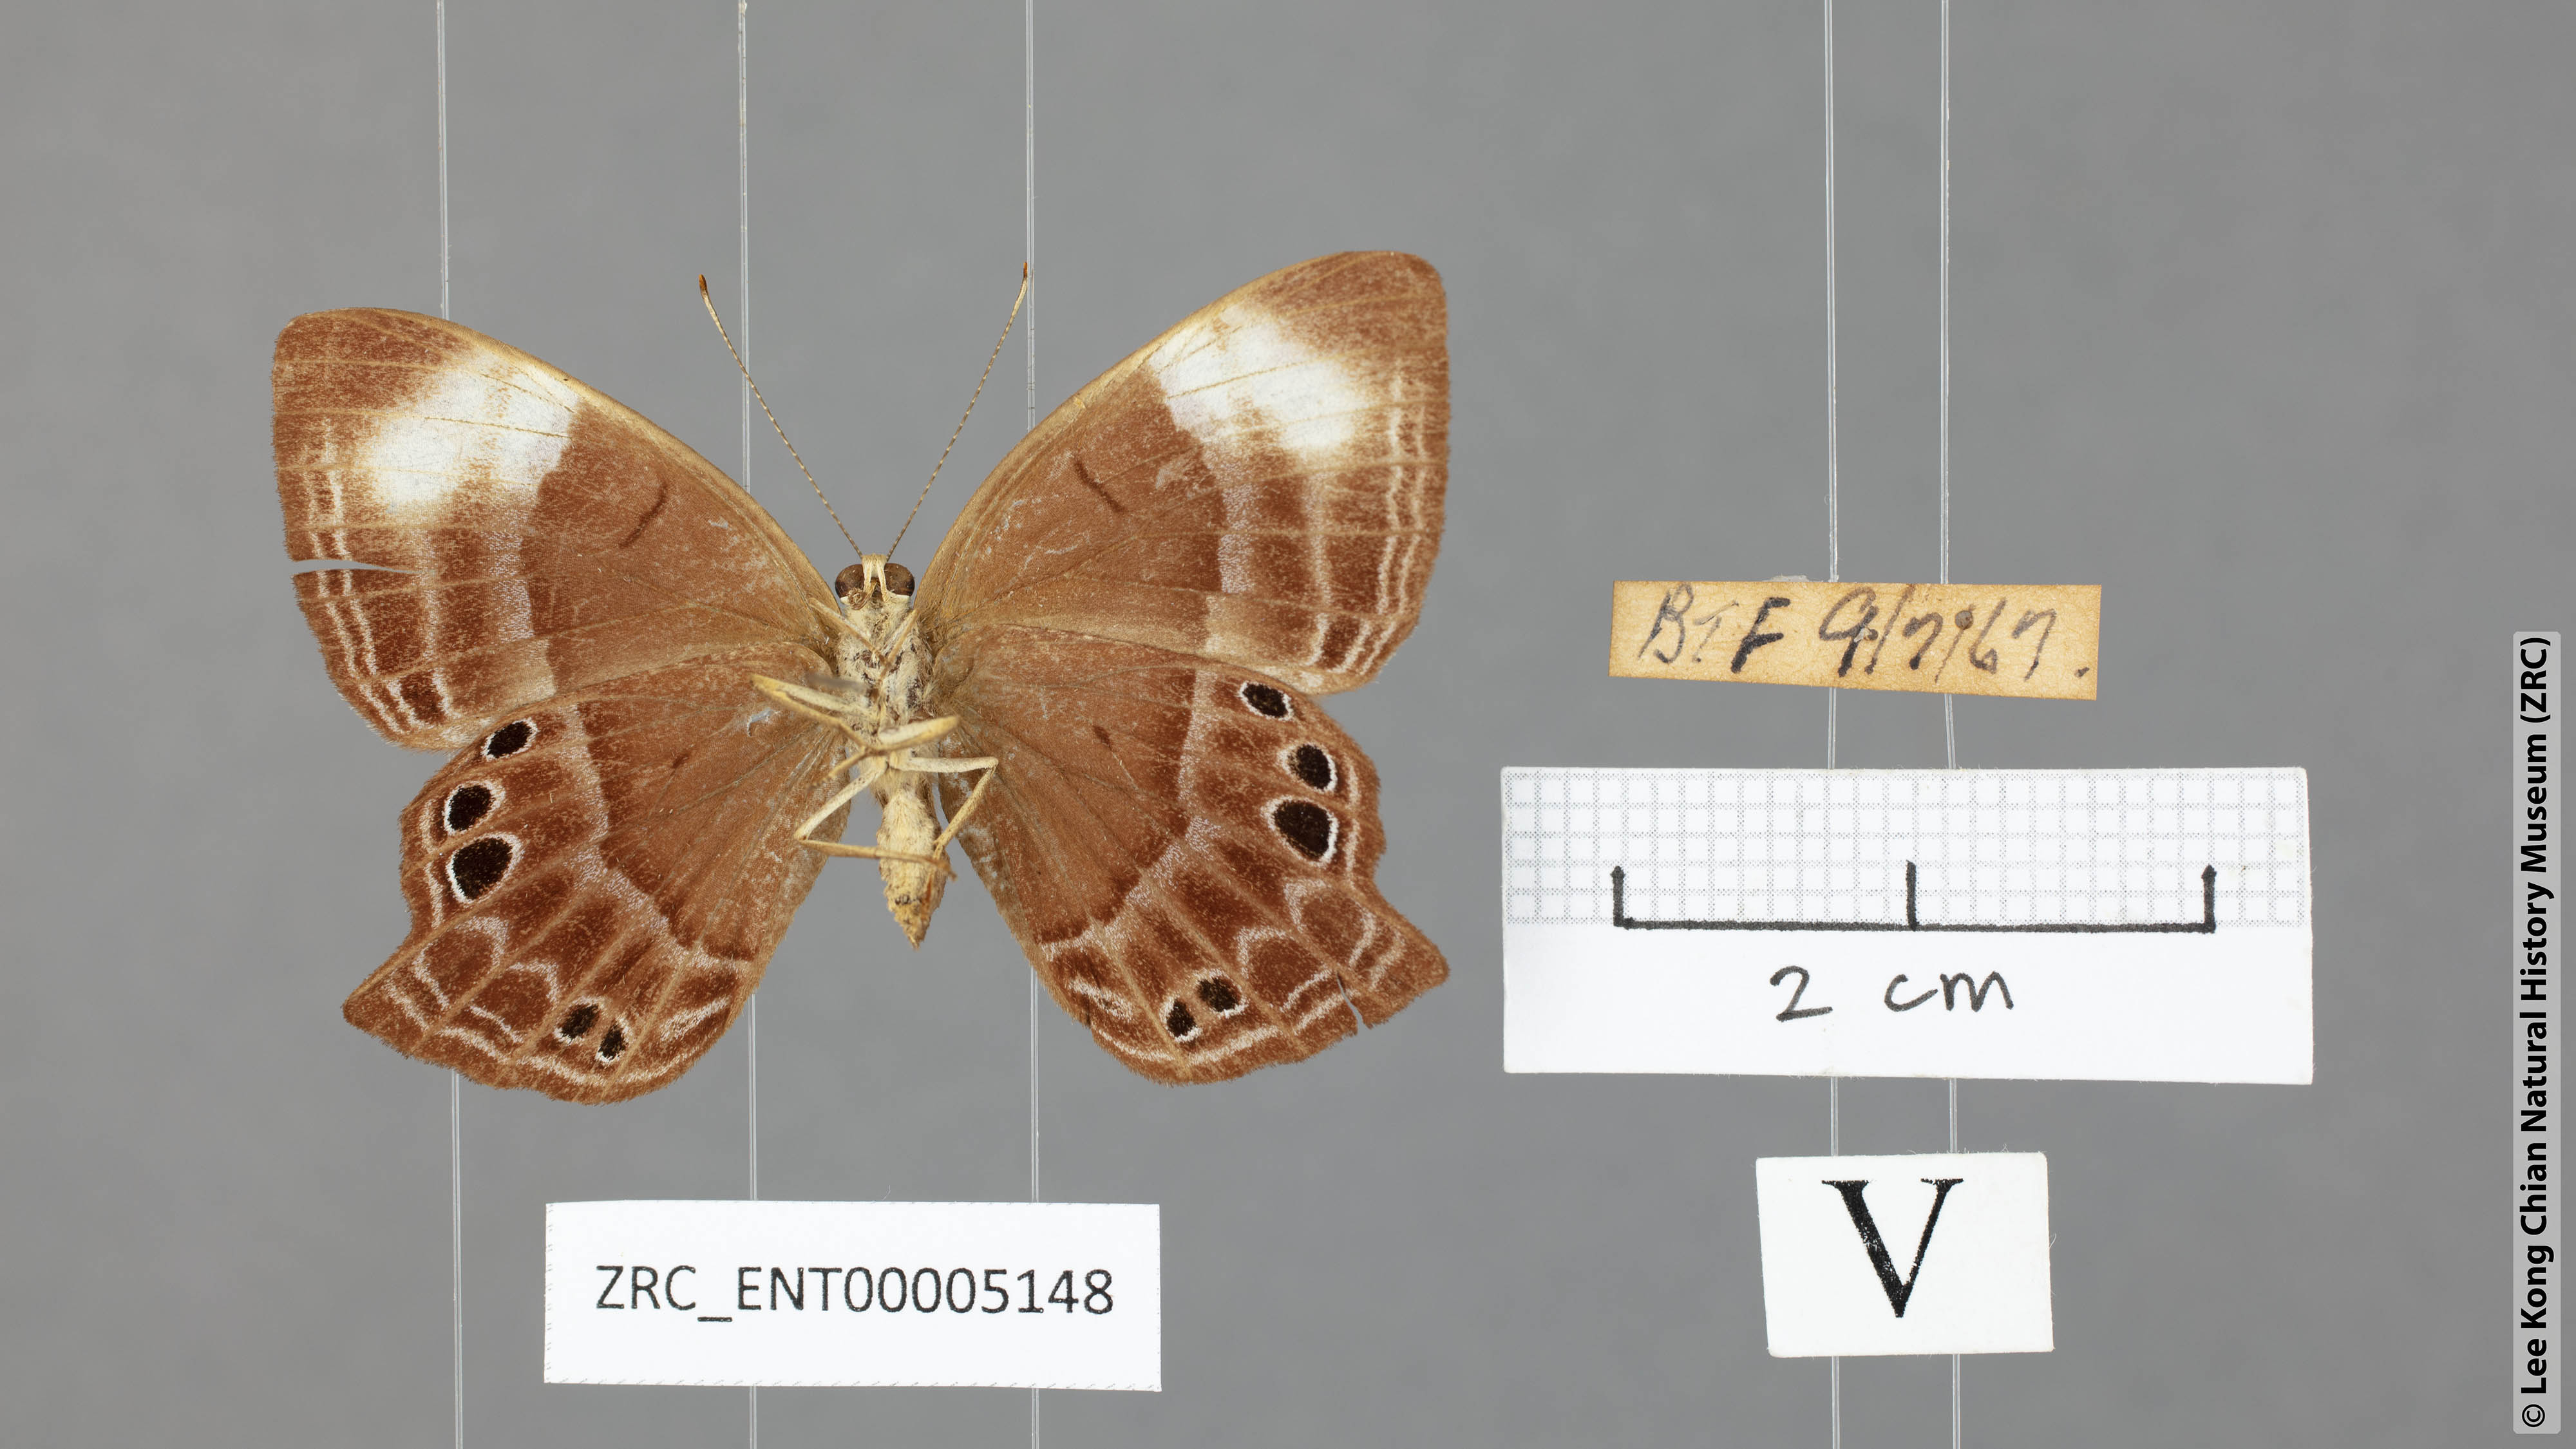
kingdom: Animalia
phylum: Arthropoda
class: Insecta
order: Lepidoptera
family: Lycaenidae
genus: Abisara
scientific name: Abisara geza
